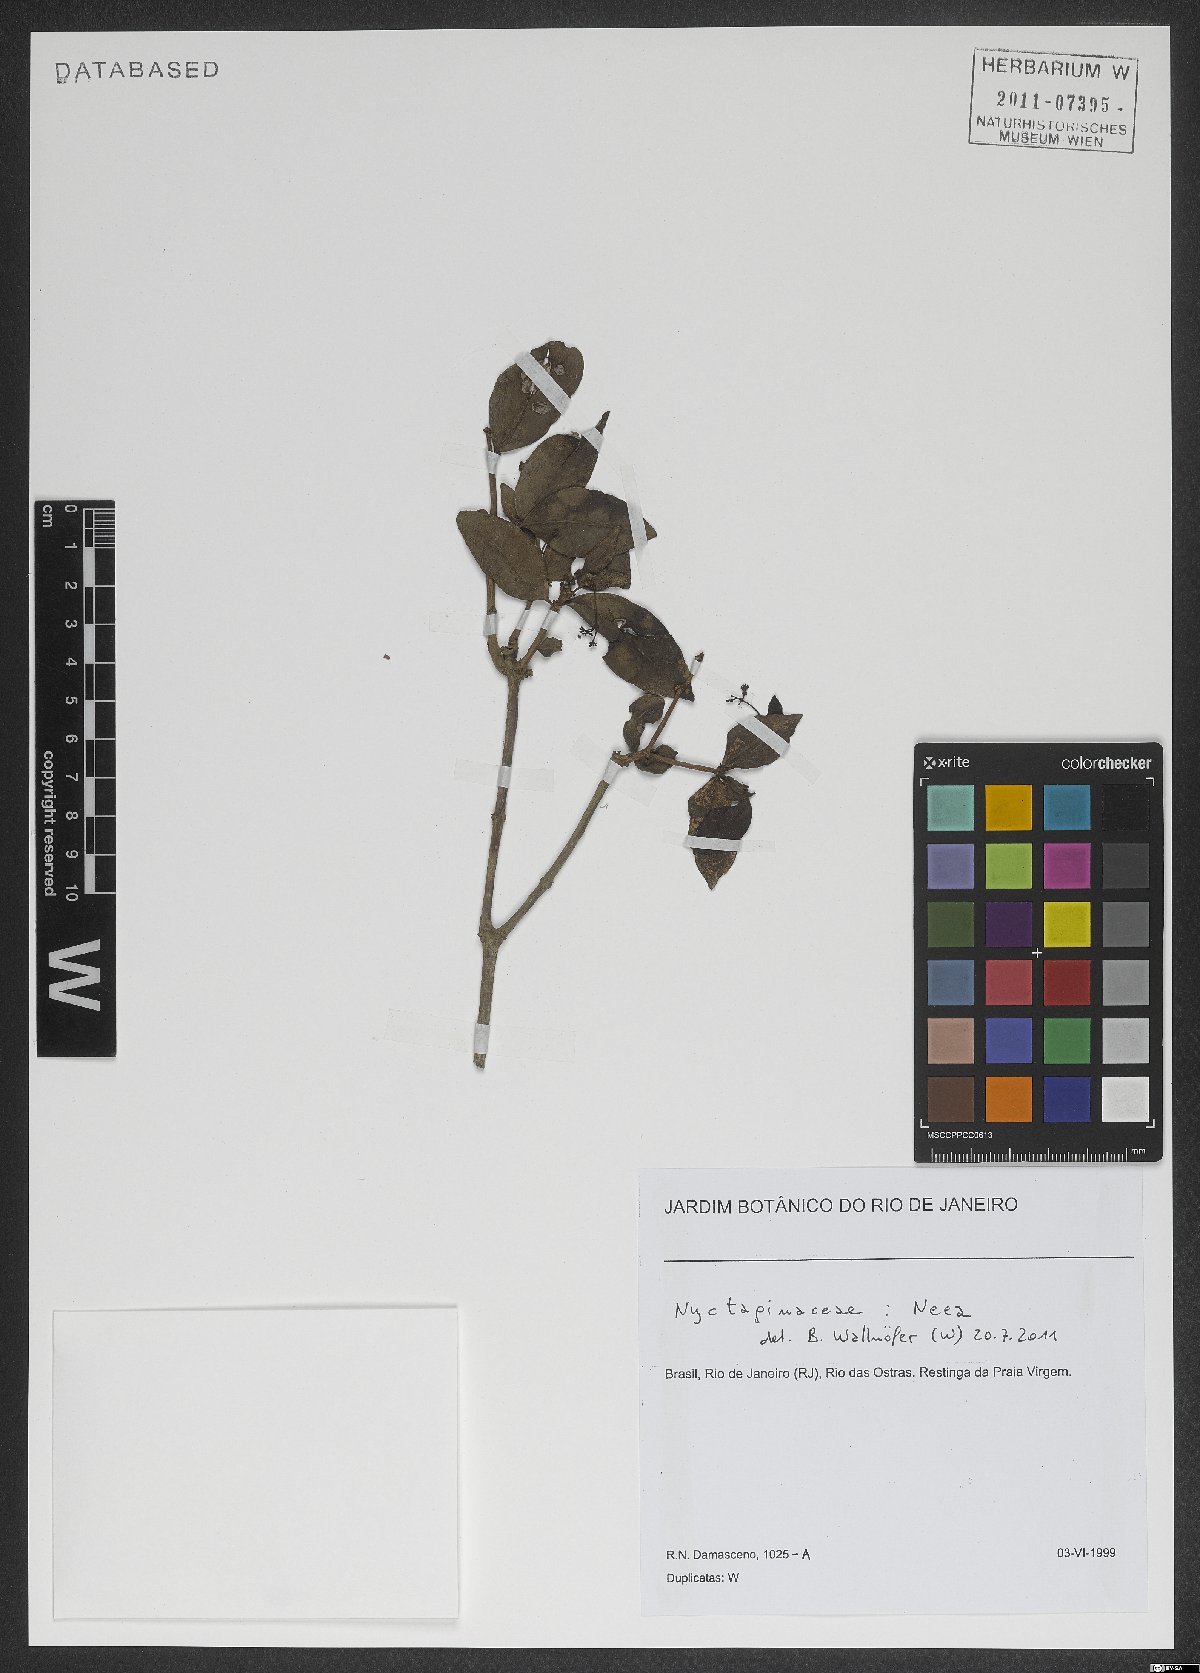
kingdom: Plantae
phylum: Tracheophyta
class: Magnoliopsida
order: Caryophyllales
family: Nyctaginaceae
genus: Neea
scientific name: Neea
